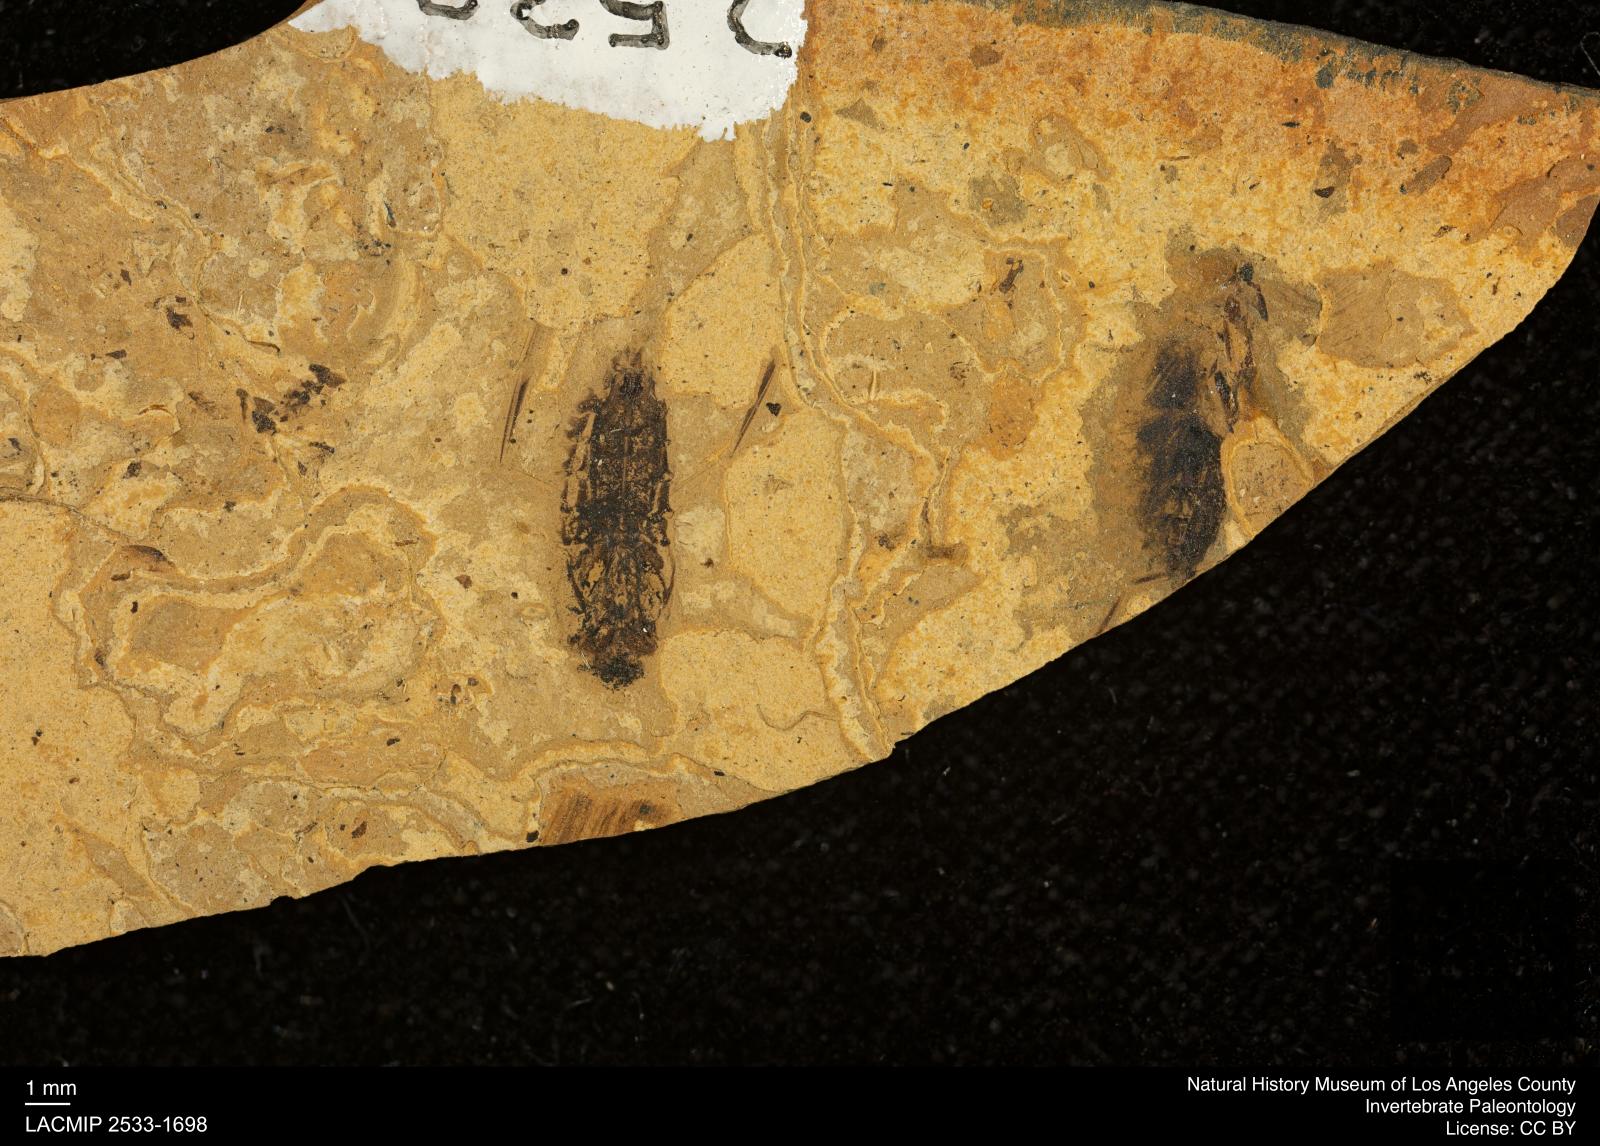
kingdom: Animalia
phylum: Arthropoda
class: Insecta
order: Hemiptera
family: Notonectidae
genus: Notonecta
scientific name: Notonecta
